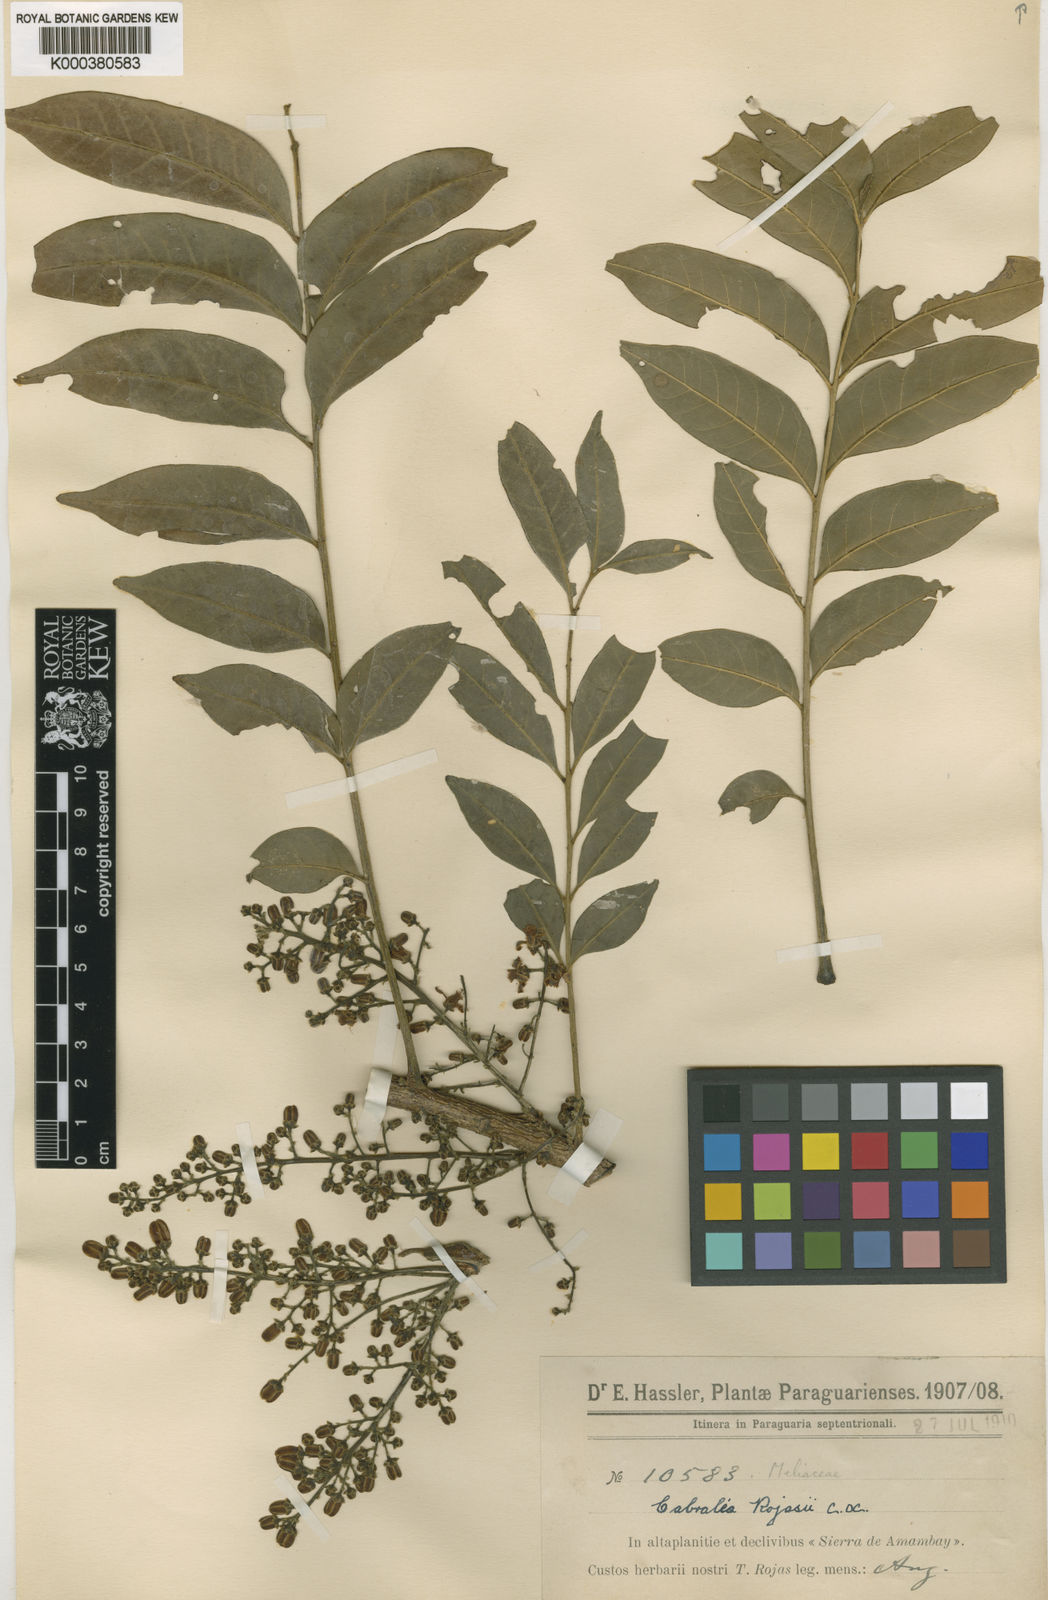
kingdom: Plantae
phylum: Tracheophyta
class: Magnoliopsida
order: Sapindales
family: Meliaceae
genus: Cabralea
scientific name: Cabralea canjerana
